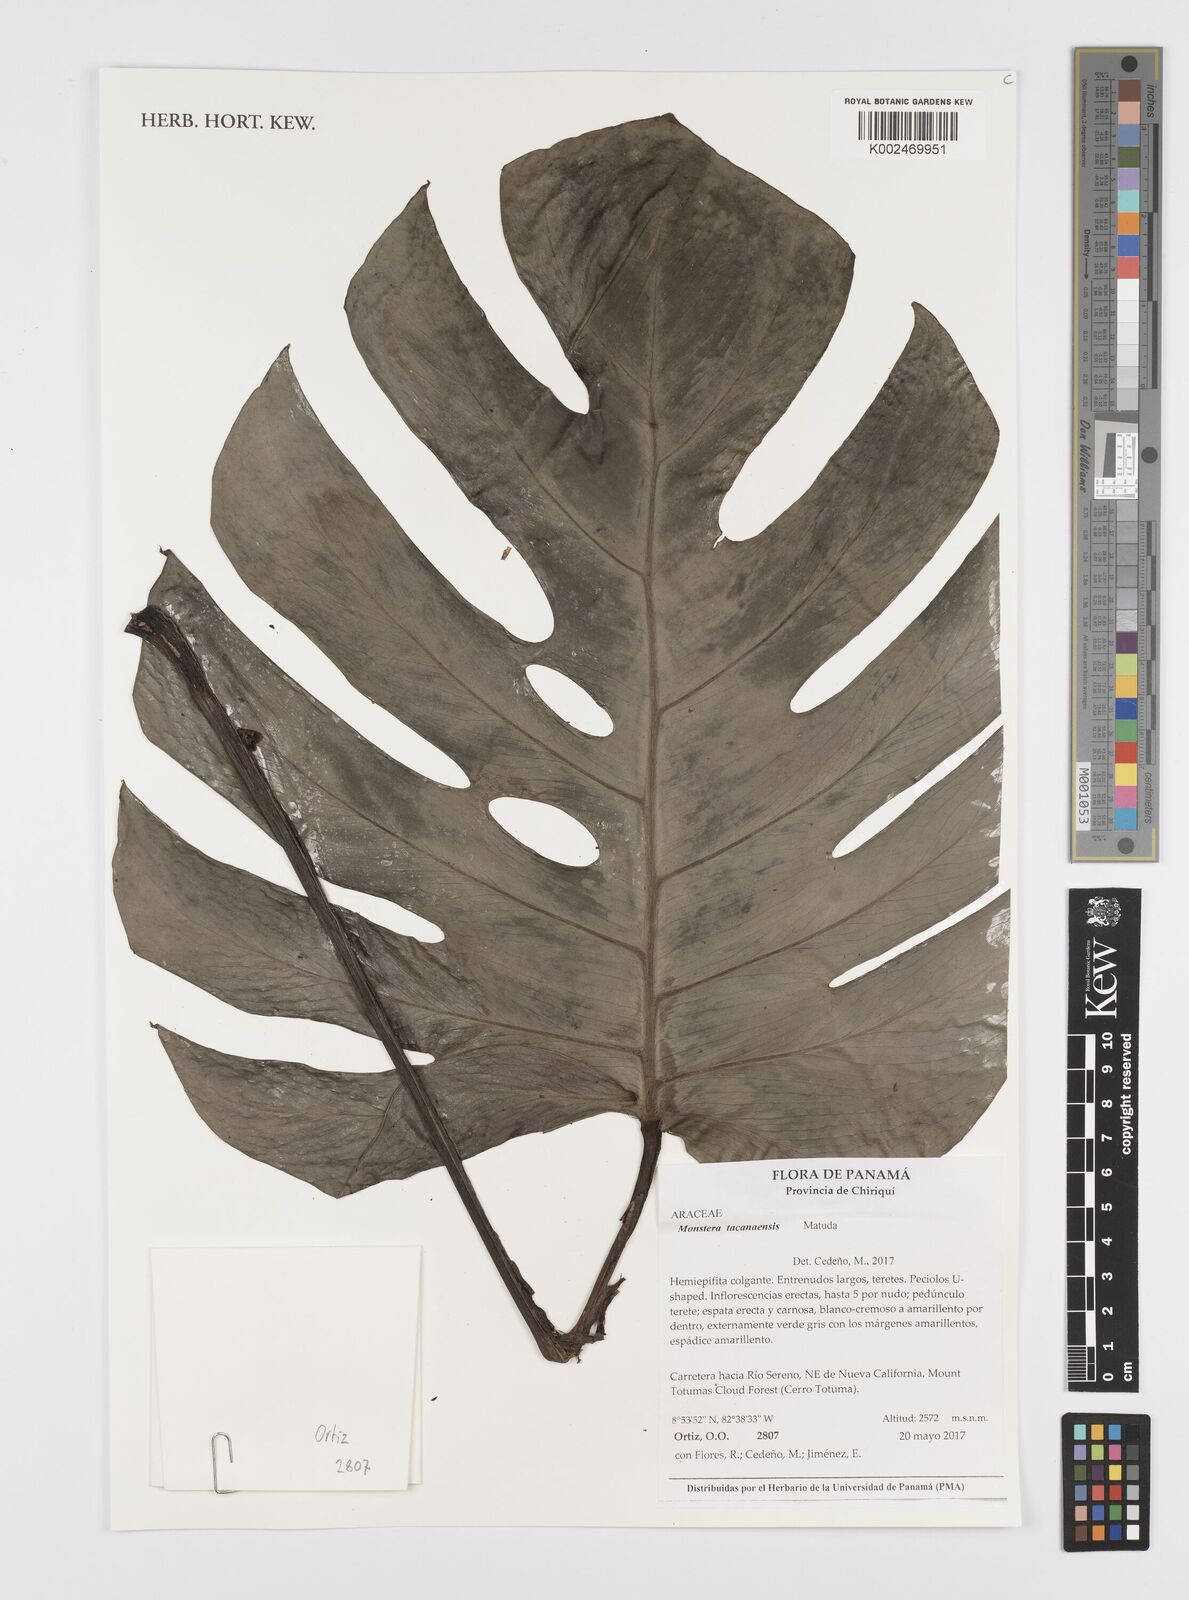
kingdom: Plantae
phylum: Tracheophyta
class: Liliopsida
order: Alismatales
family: Araceae
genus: Monstera
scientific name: Monstera tacanaensis
